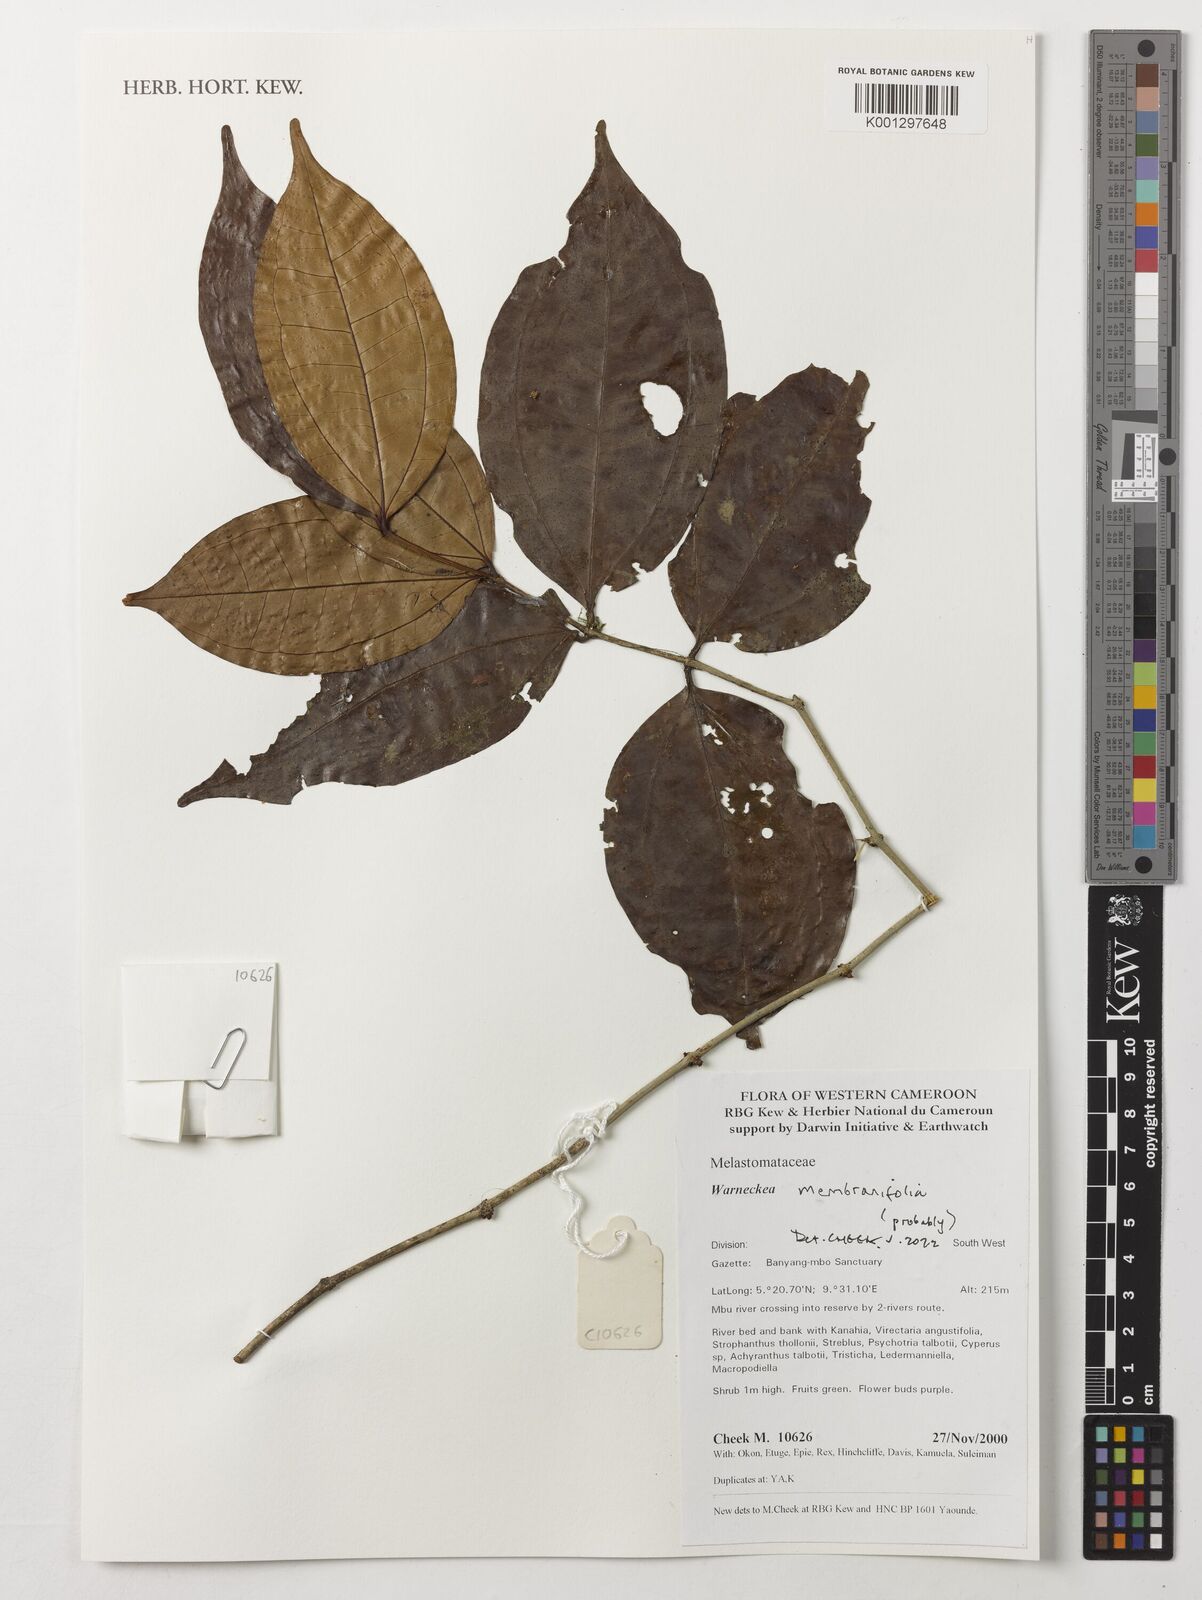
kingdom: Plantae
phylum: Tracheophyta
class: Magnoliopsida
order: Myrtales
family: Melastomataceae
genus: Warneckea
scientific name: Warneckea membranifolia
